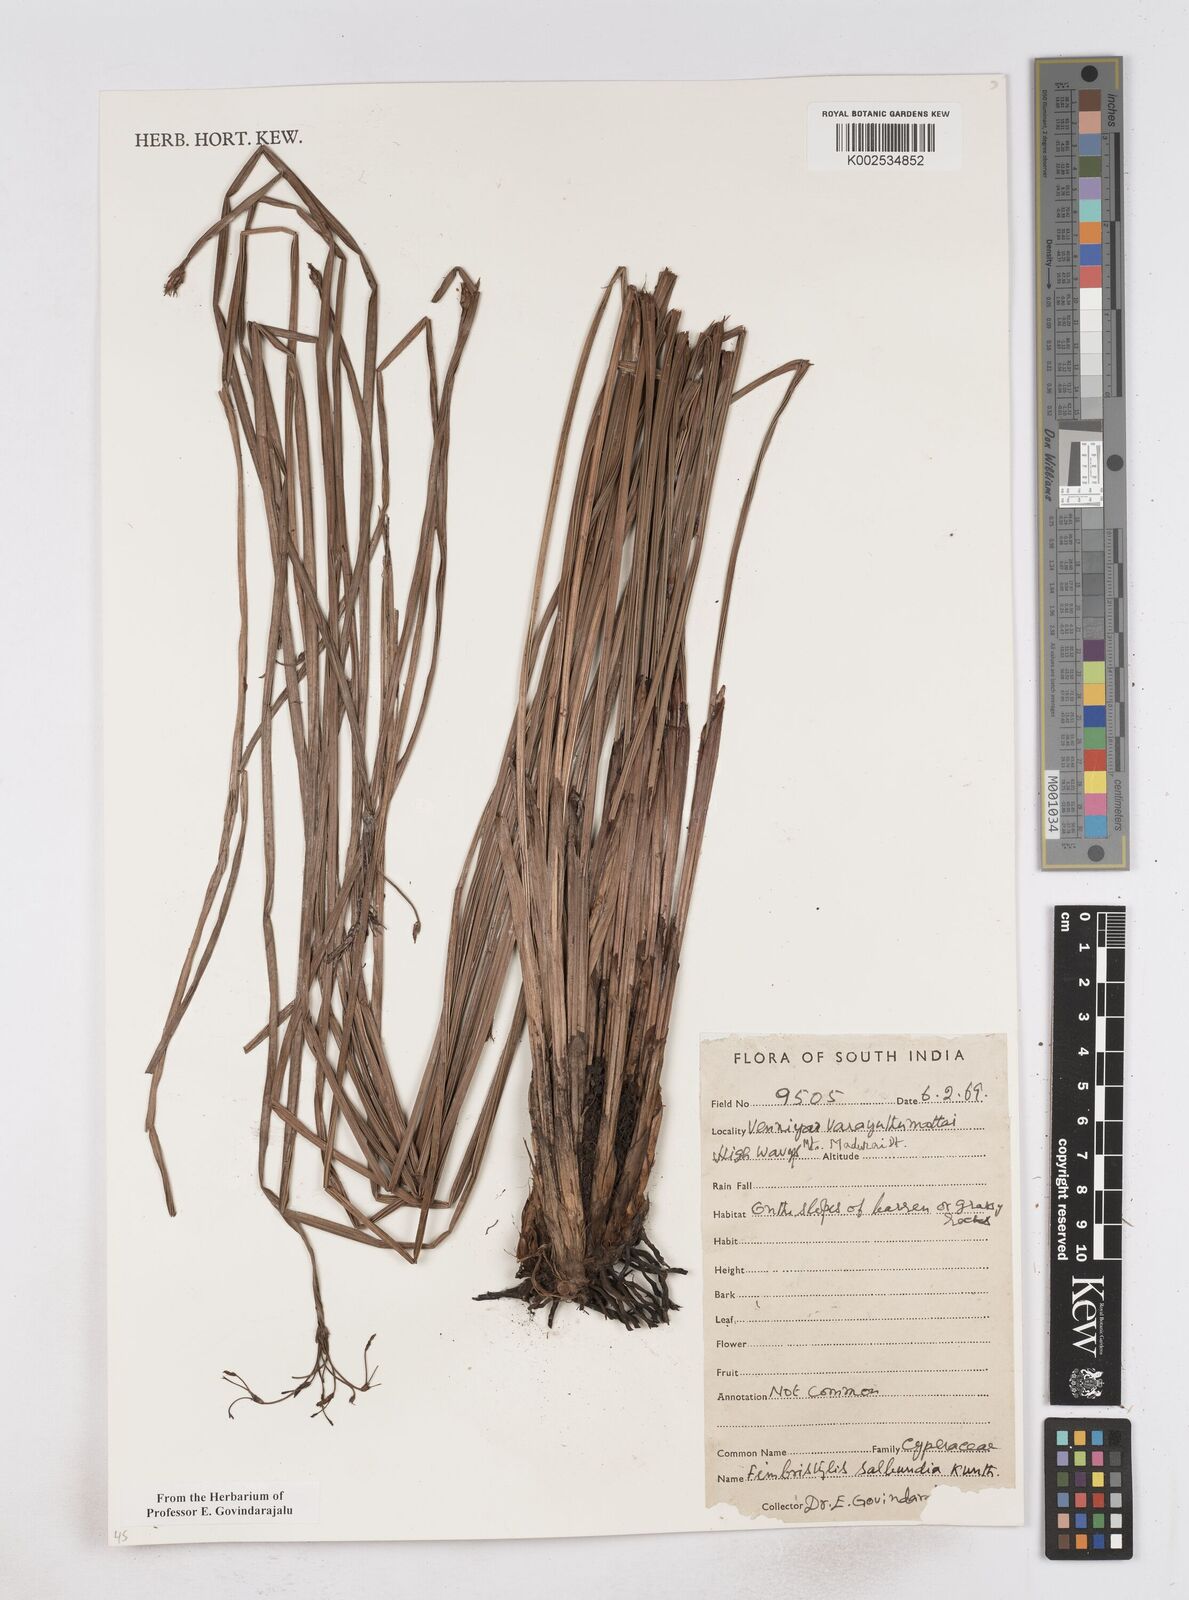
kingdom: Plantae
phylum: Tracheophyta
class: Liliopsida
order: Poales
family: Cyperaceae
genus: Fimbristylis
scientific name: Fimbristylis salbundia
